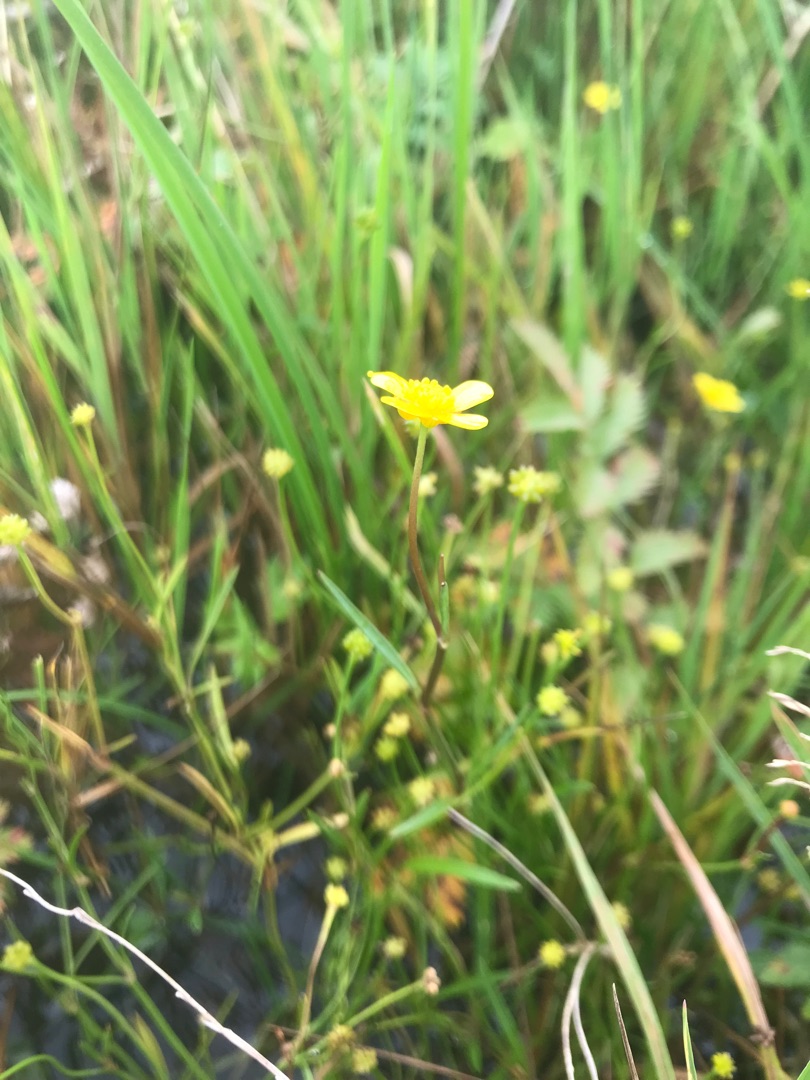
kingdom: Plantae
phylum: Tracheophyta
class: Magnoliopsida
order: Ranunculales
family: Ranunculaceae
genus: Ranunculus
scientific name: Ranunculus flammula
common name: Kær-ranunkel
